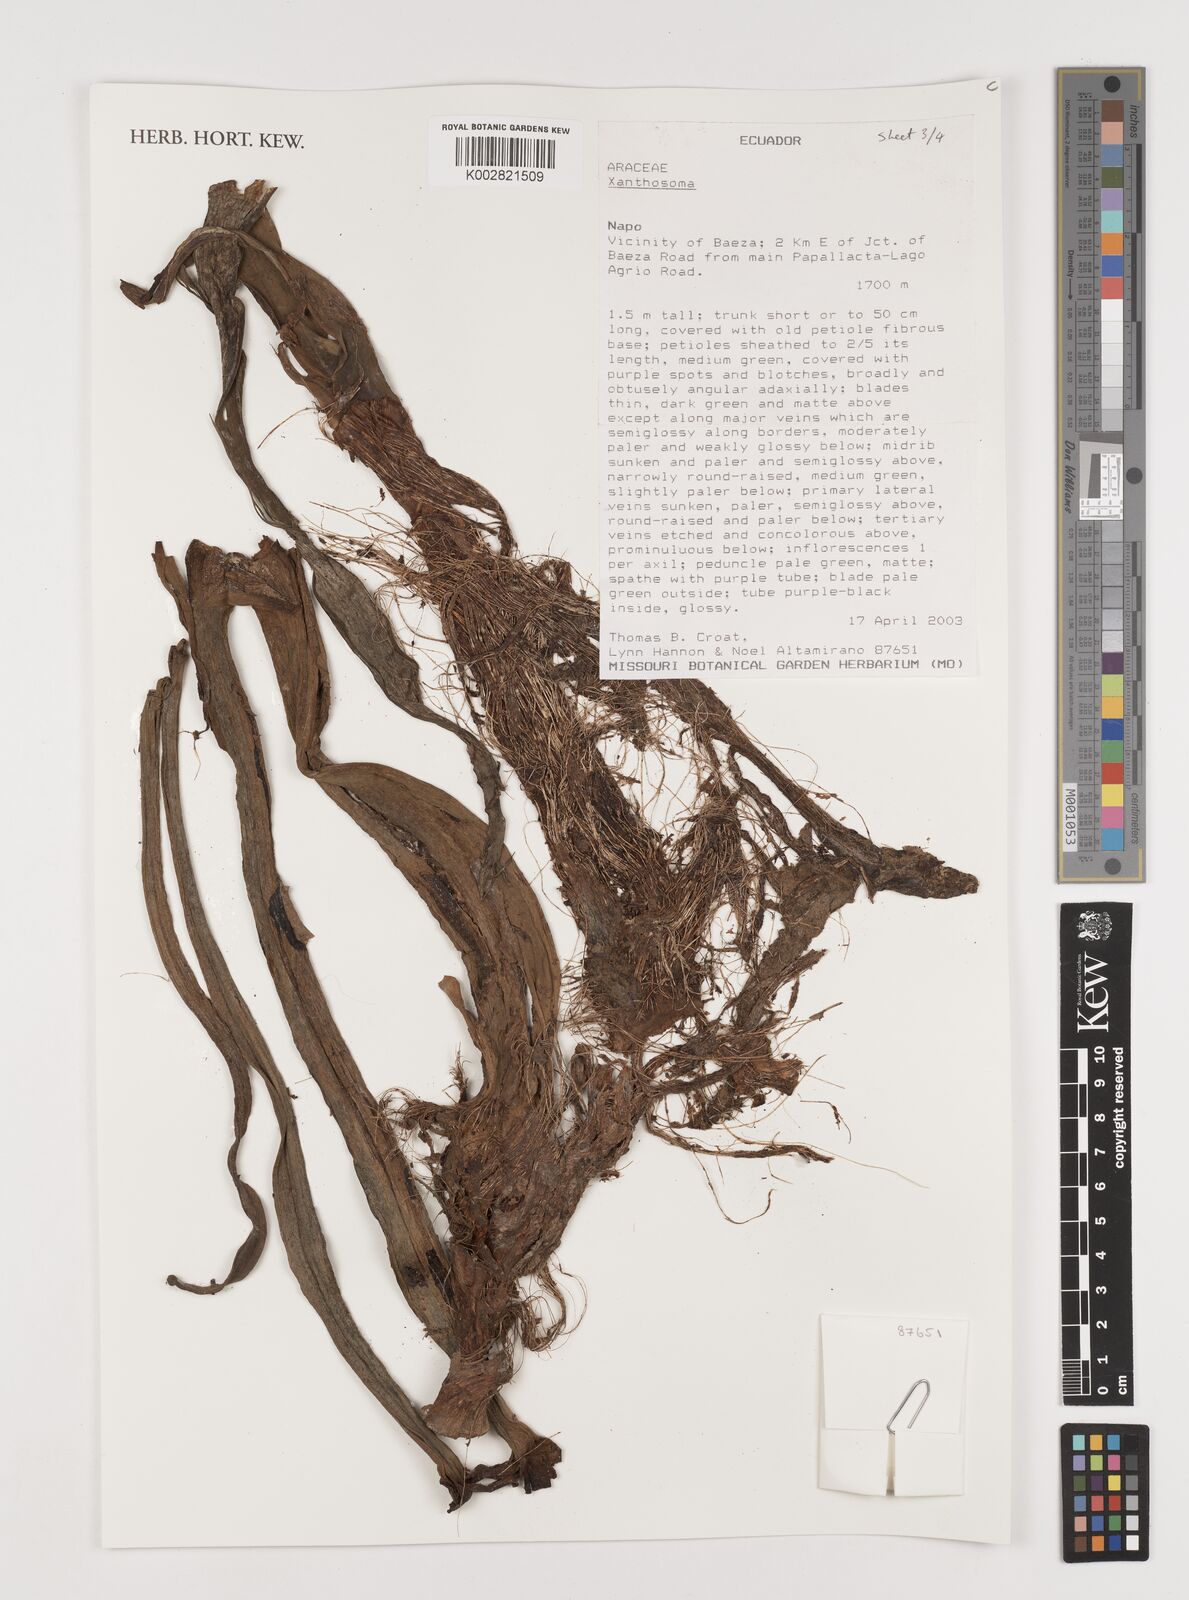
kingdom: Plantae
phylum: Tracheophyta
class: Liliopsida
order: Alismatales
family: Araceae
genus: Xanthosoma
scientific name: Xanthosoma
